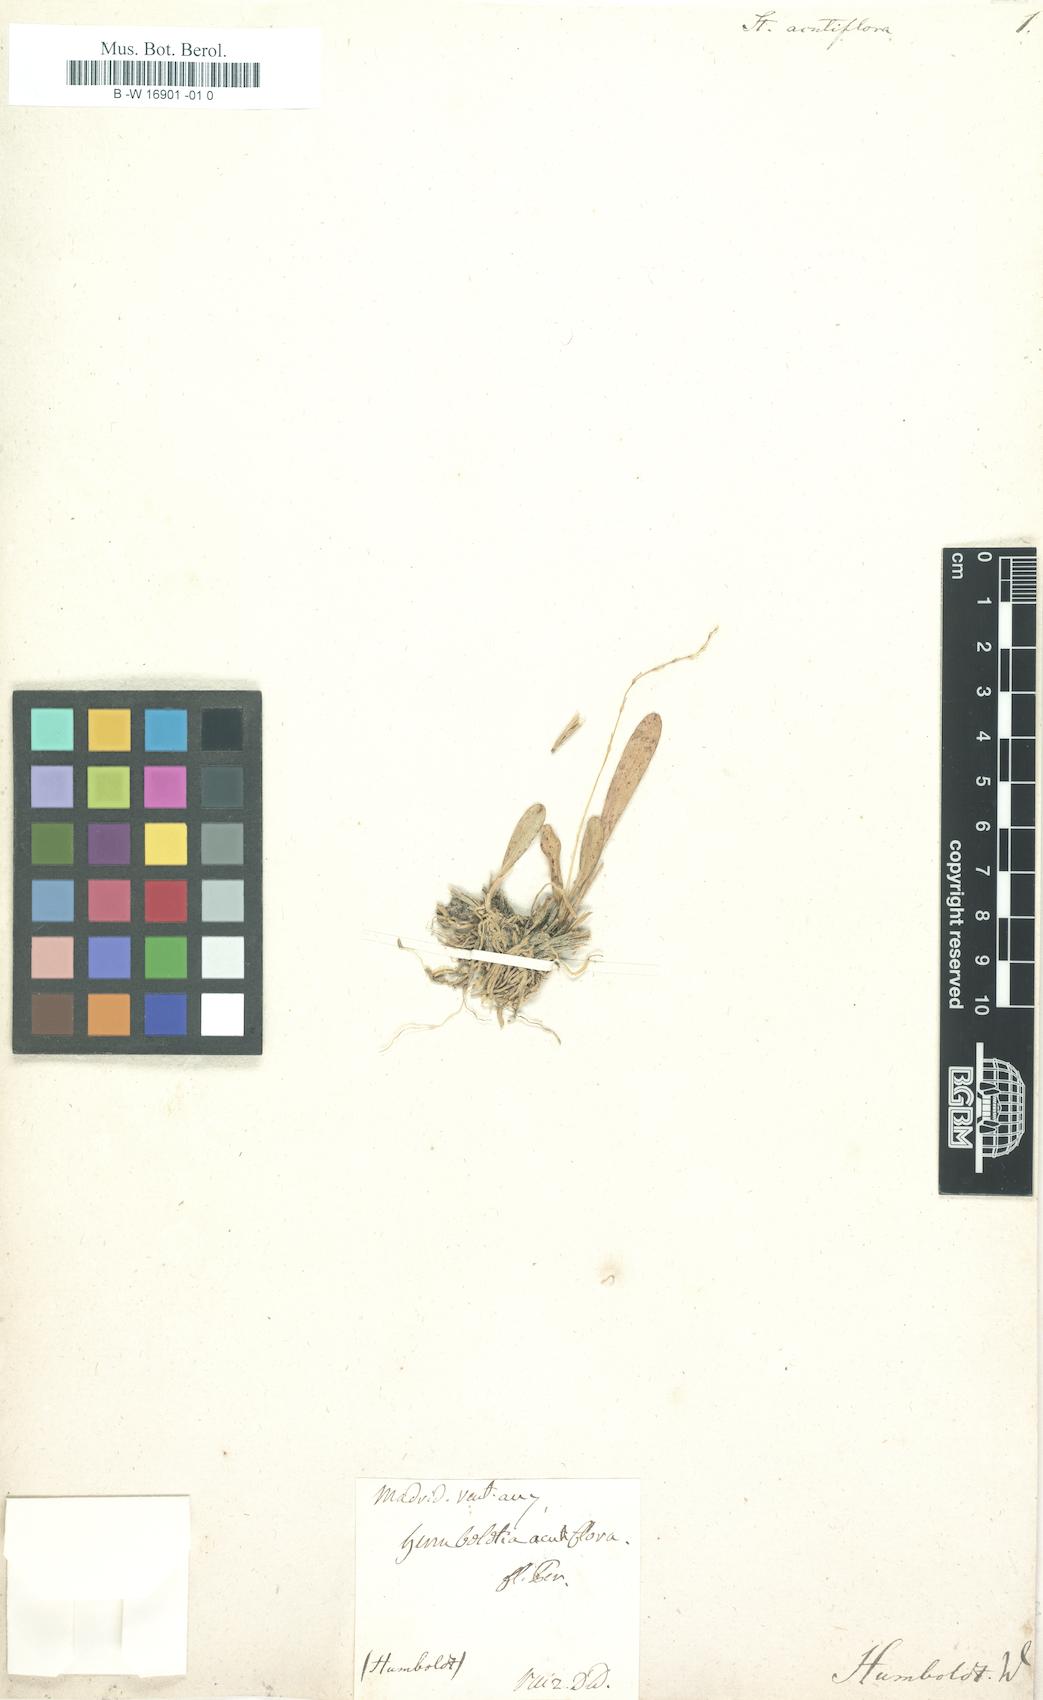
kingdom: Plantae
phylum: Tracheophyta
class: Liliopsida
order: Asparagales
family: Orchidaceae
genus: Specklinia
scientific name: Specklinia acutiflora
